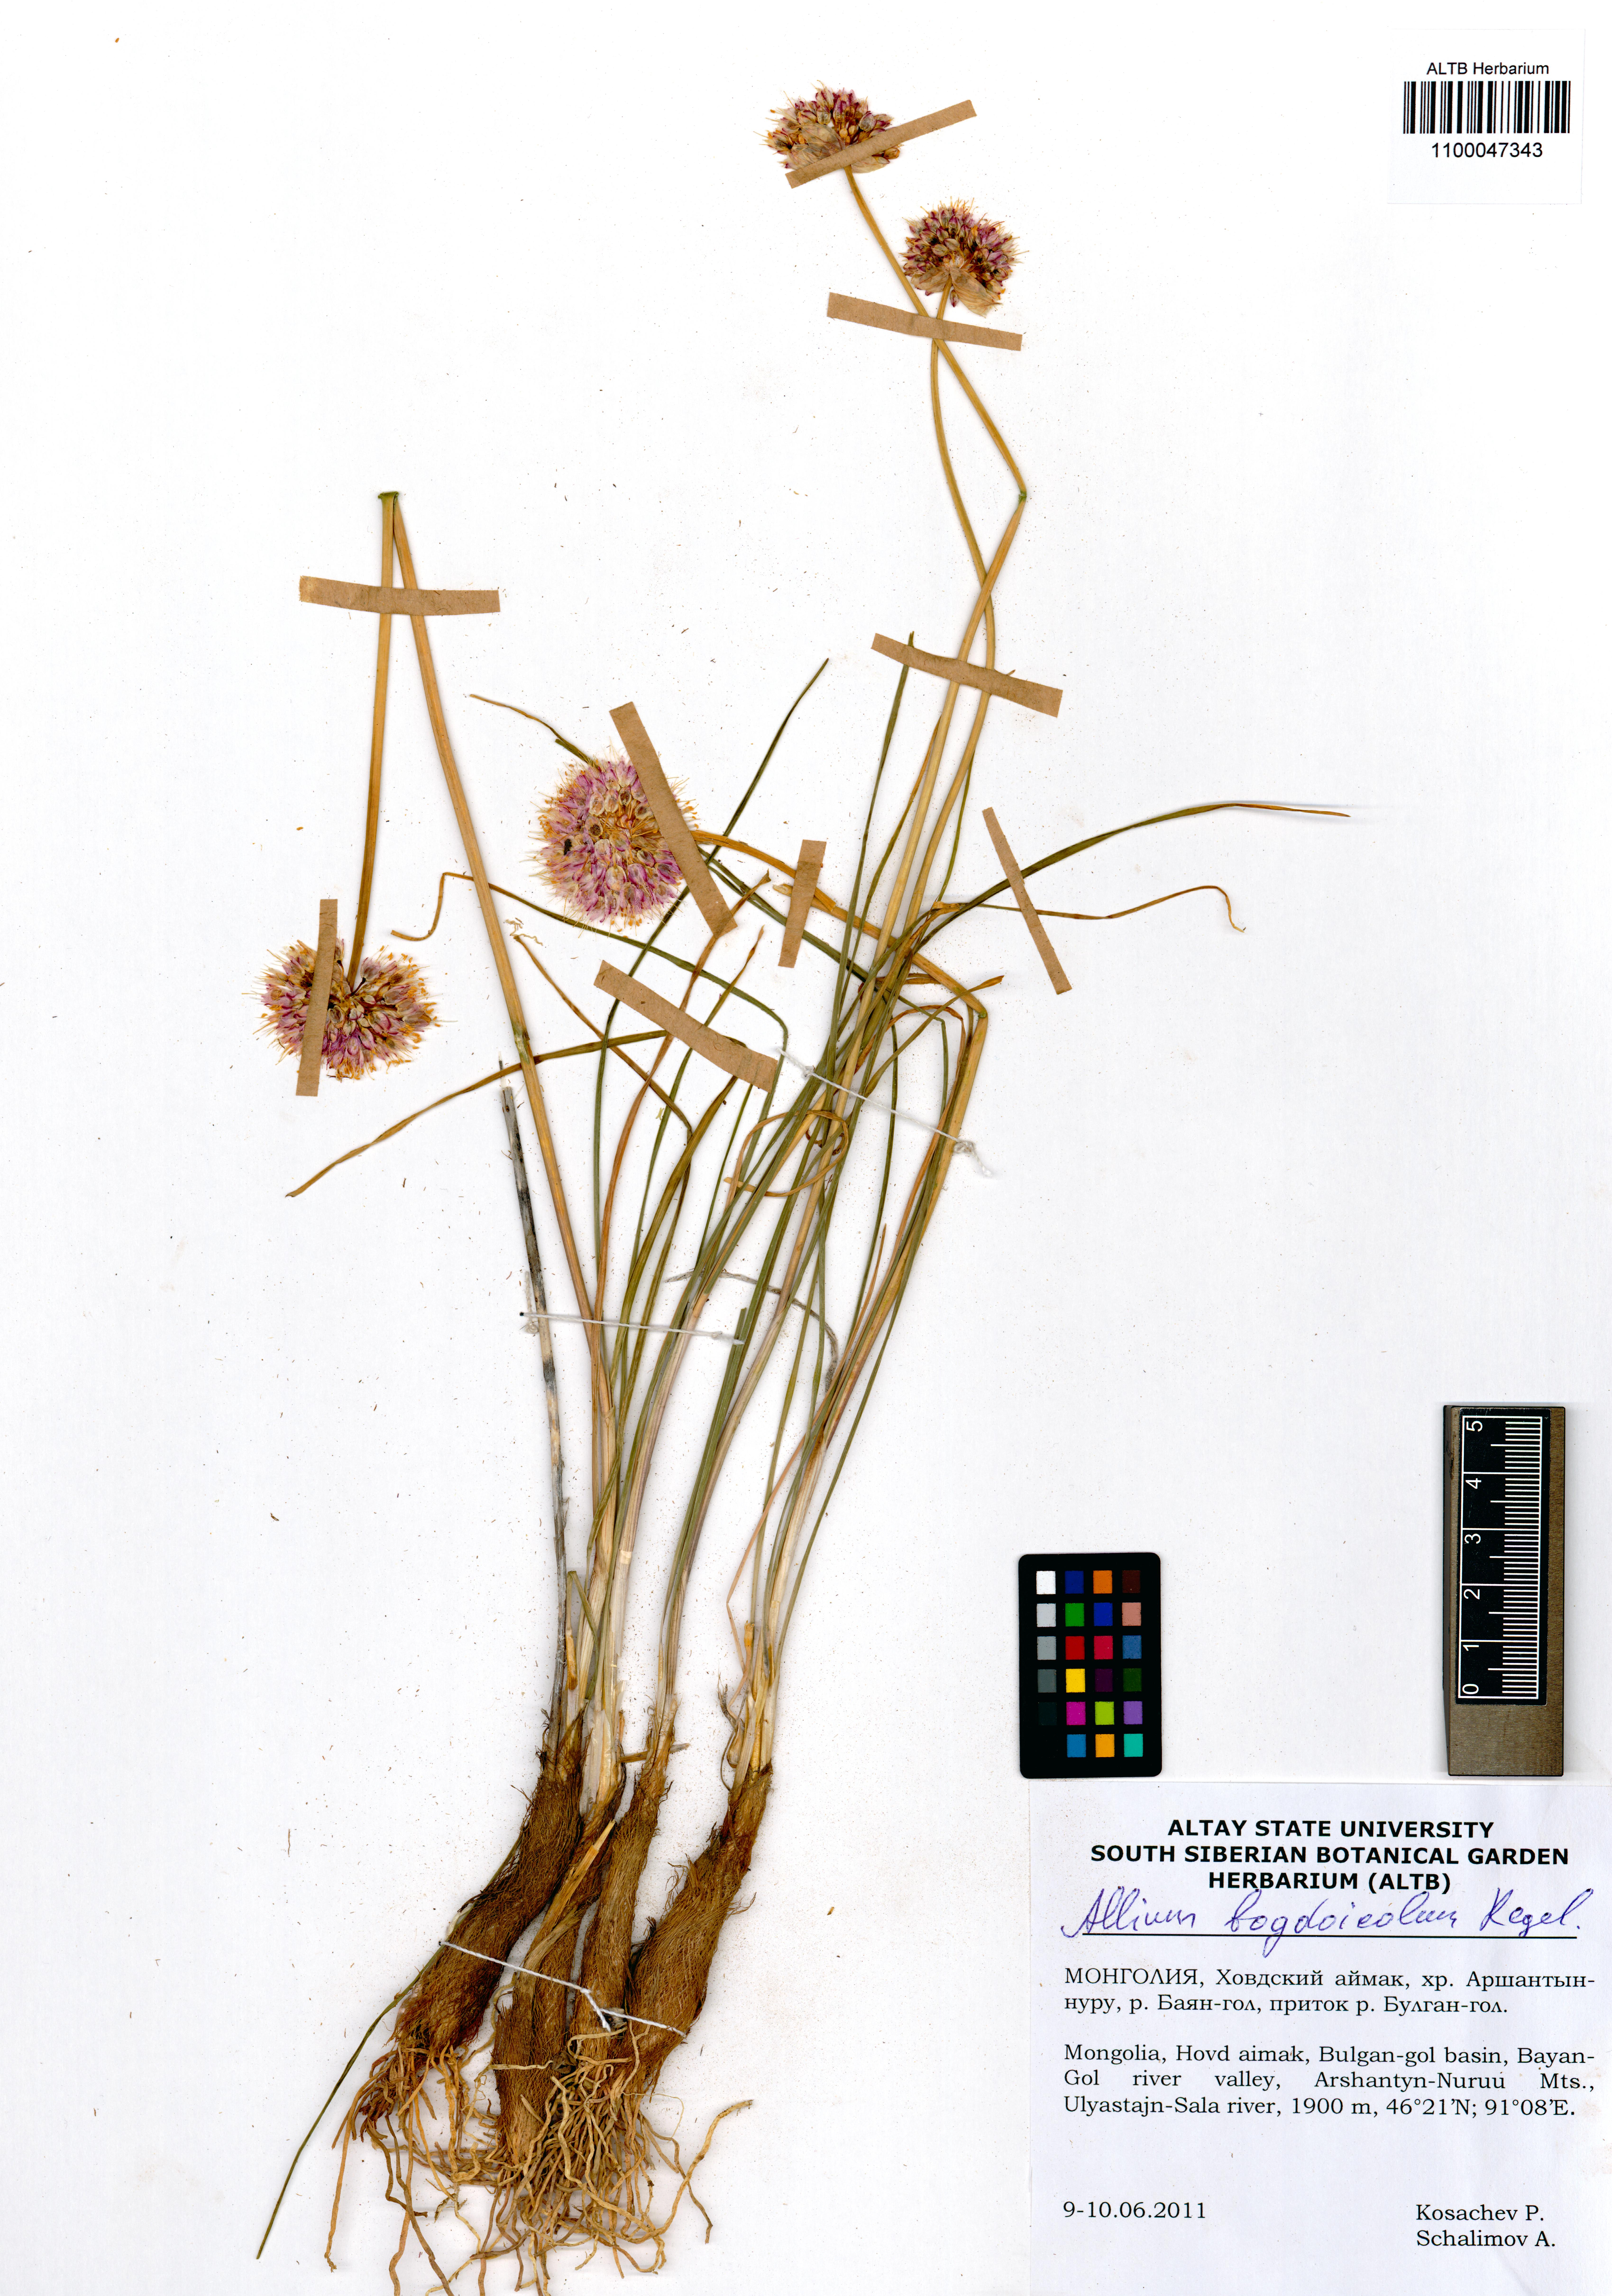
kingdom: Plantae
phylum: Tracheophyta
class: Liliopsida
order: Asparagales
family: Amaryllidaceae
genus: Allium
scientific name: Allium schrenkii
